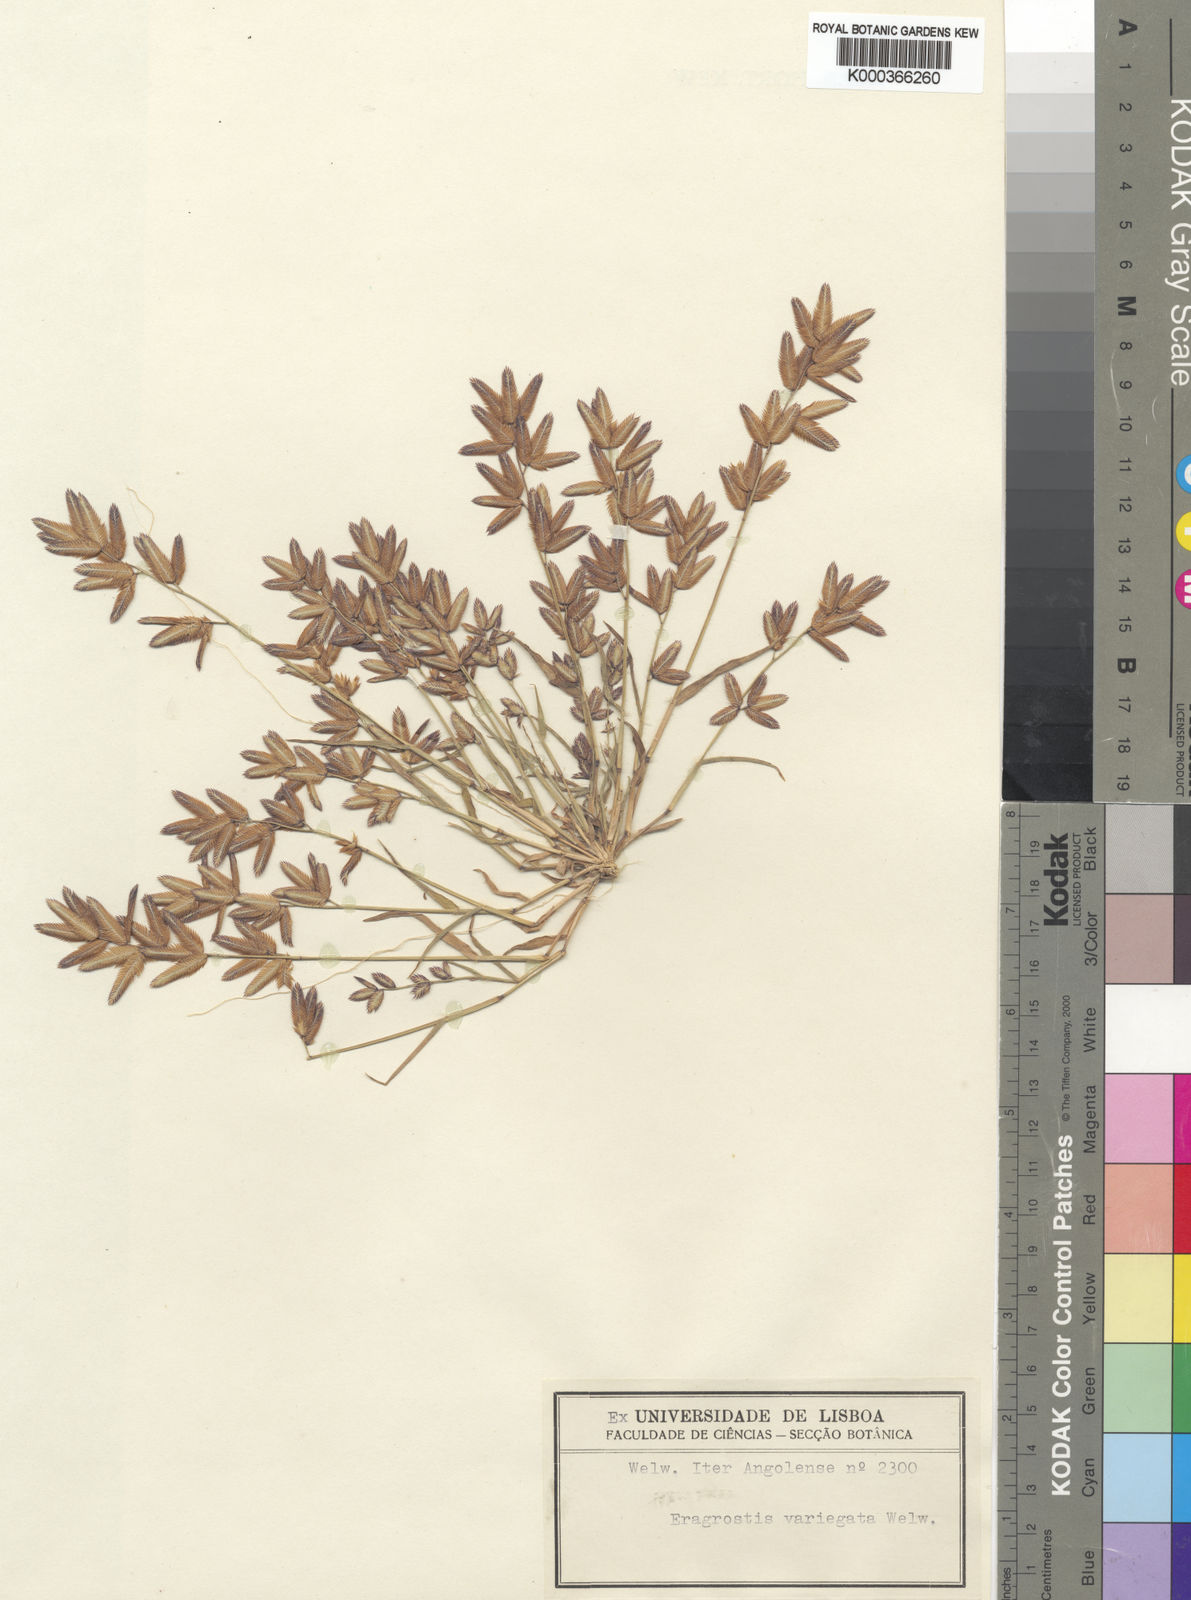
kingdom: Plantae
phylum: Tracheophyta
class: Liliopsida
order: Poales
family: Poaceae
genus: Eragrostis
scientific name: Eragrostis variegata
